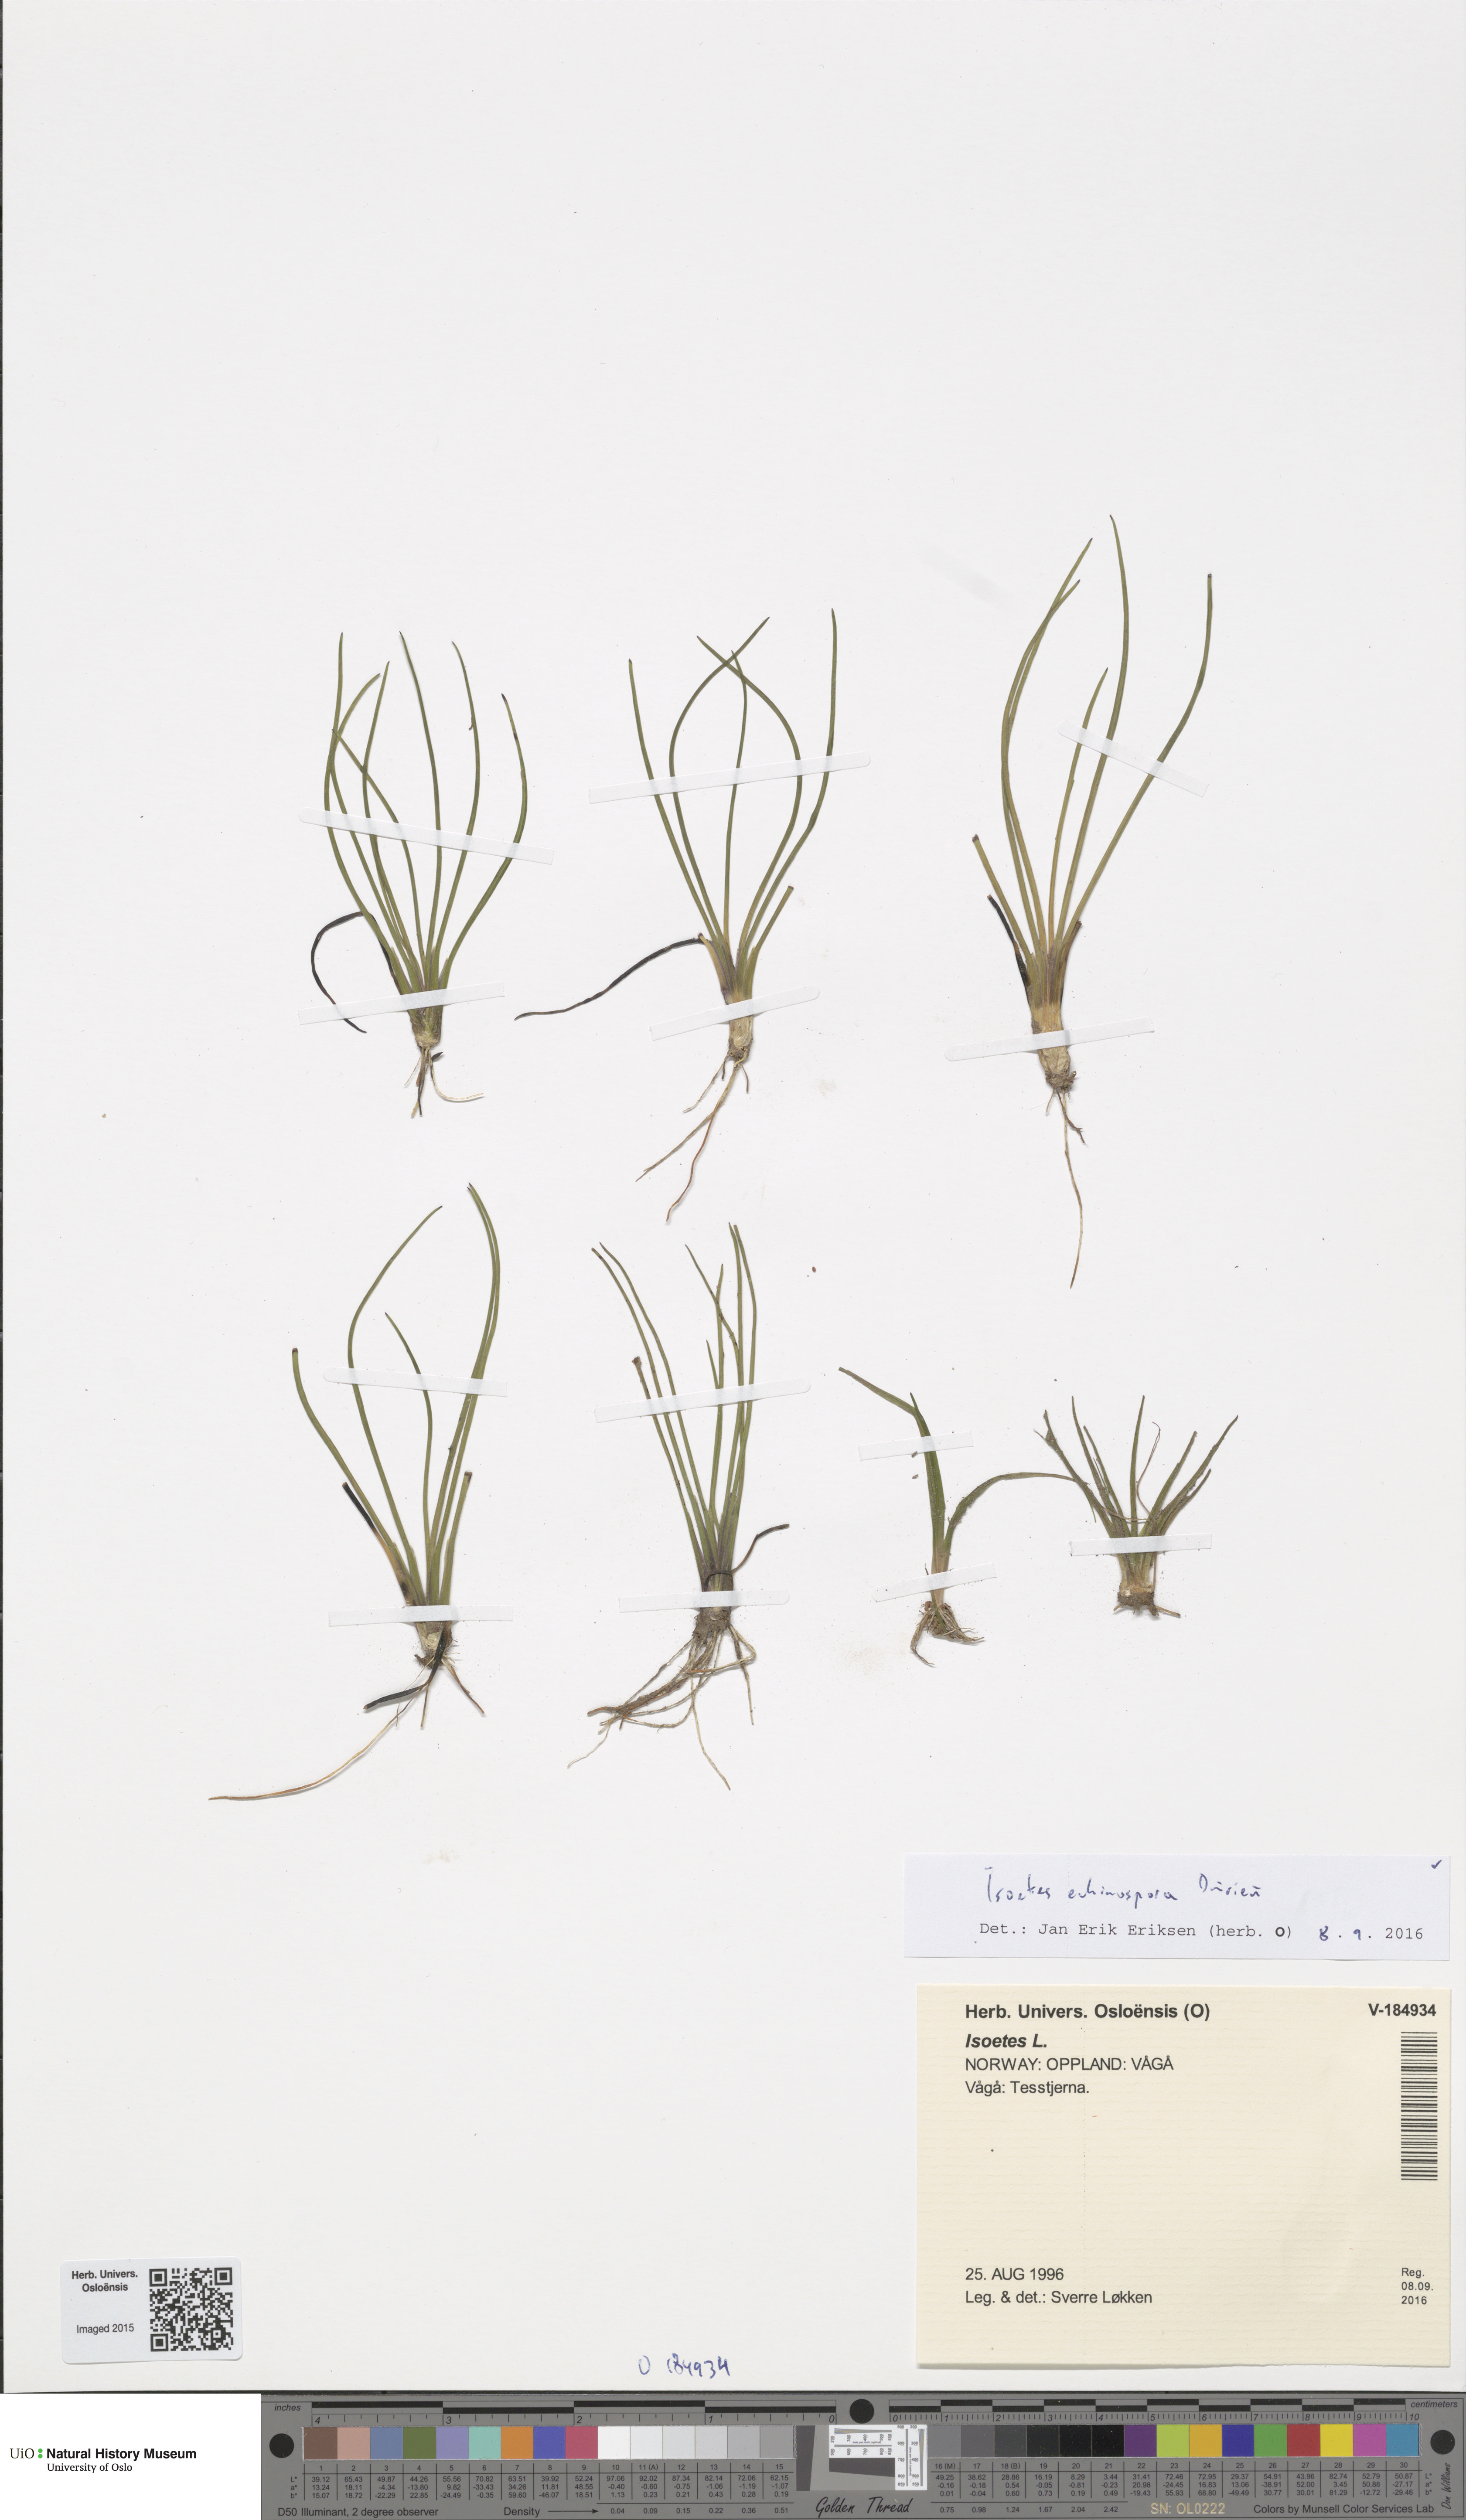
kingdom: Plantae
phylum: Tracheophyta
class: Lycopodiopsida
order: Isoetales
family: Isoetaceae
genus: Isoetes
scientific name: Isoetes echinospora
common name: Spring quillwort
